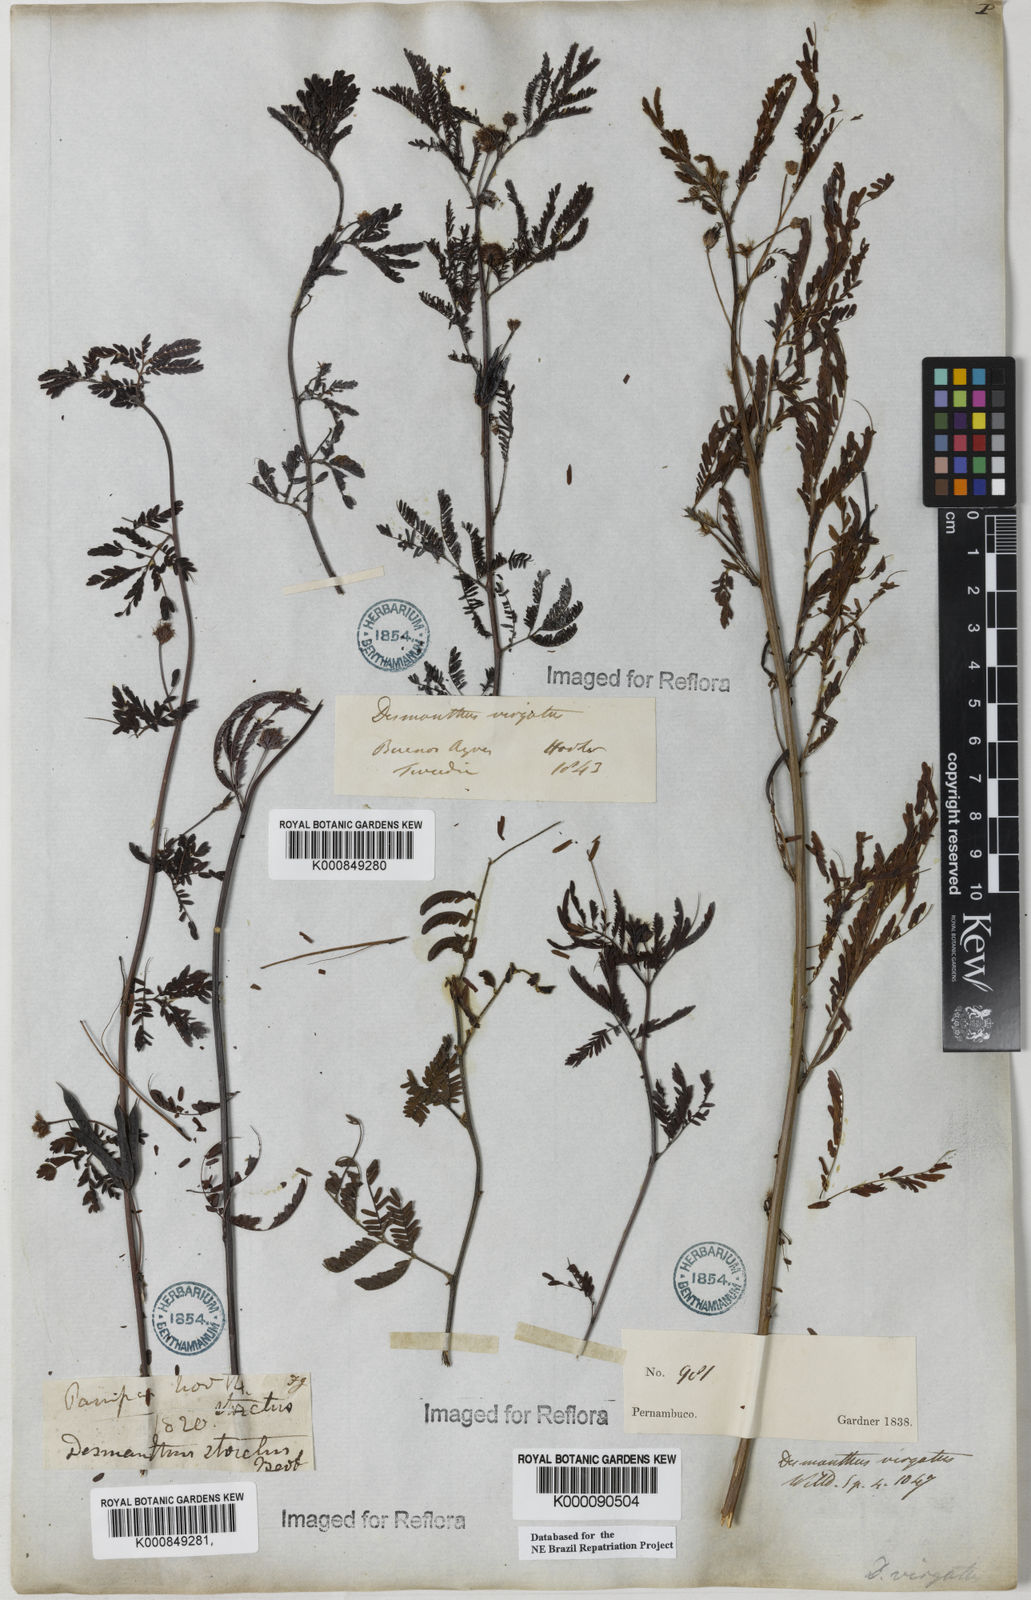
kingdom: Plantae
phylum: Tracheophyta
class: Magnoliopsida
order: Fabales
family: Fabaceae
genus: Desmanthus
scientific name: Desmanthus virgatus
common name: Wild tantan
